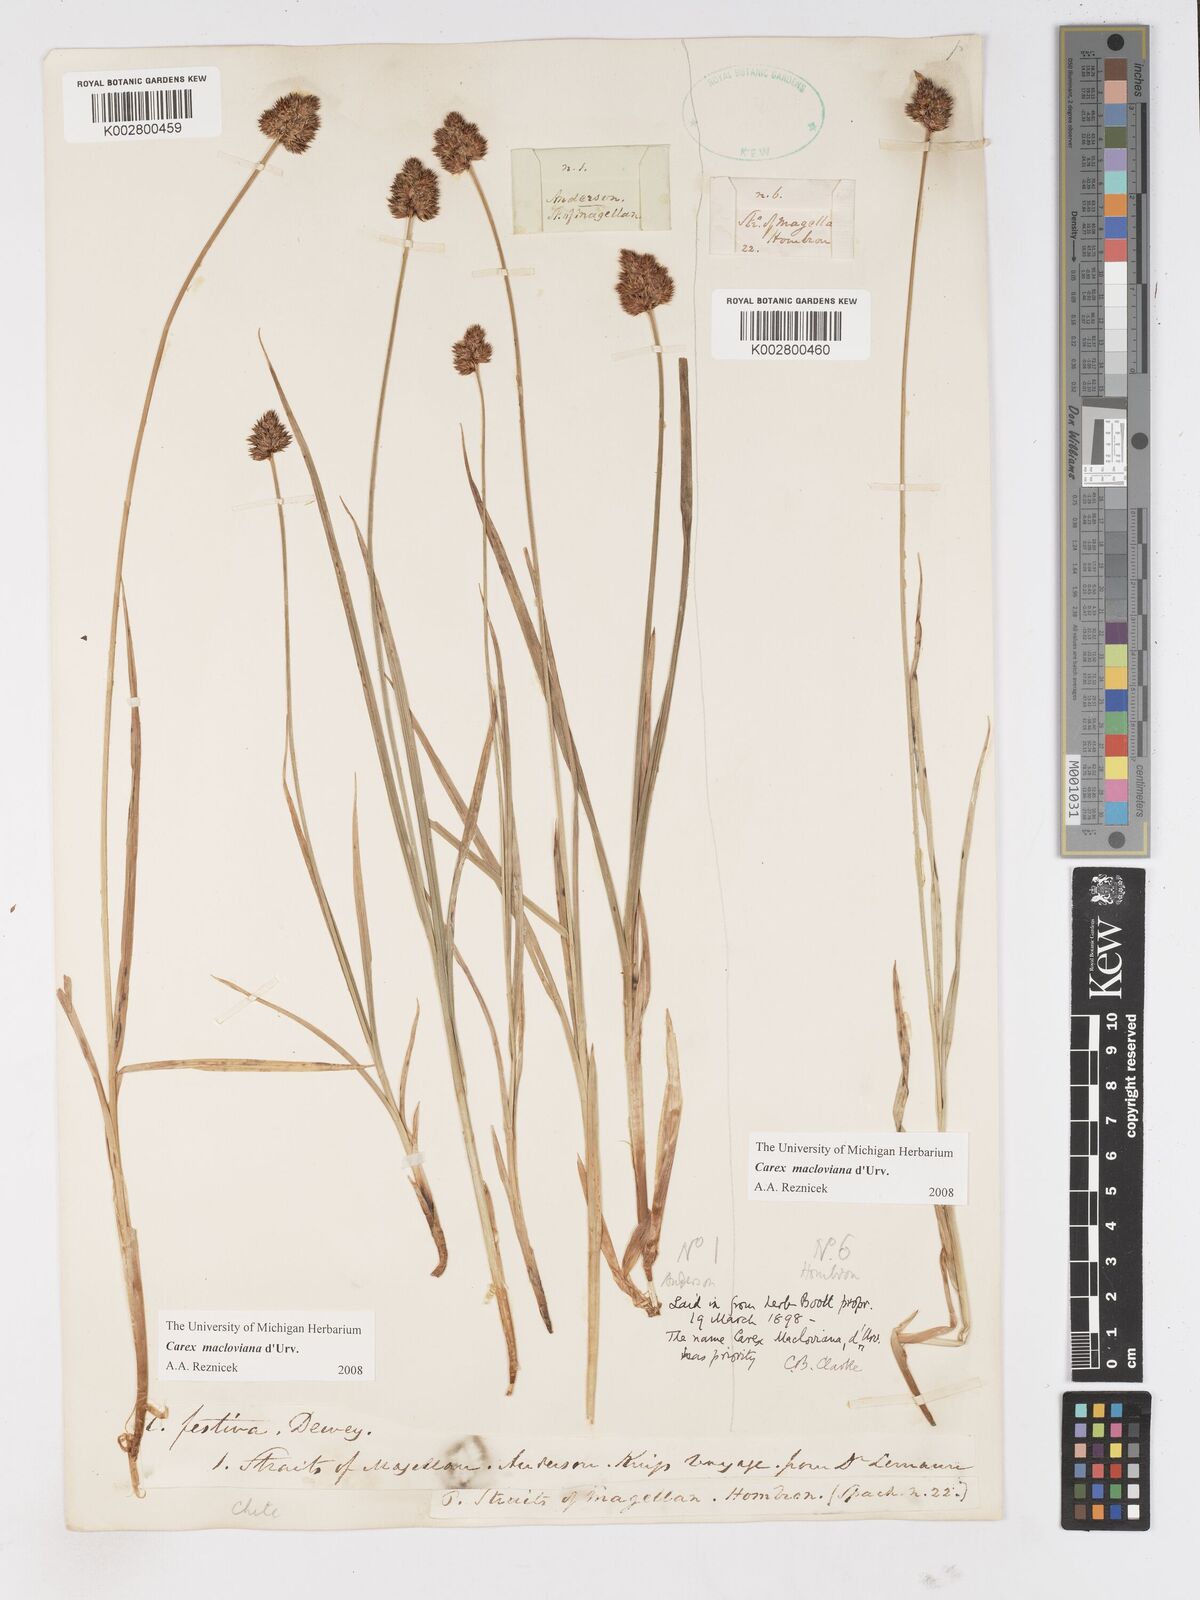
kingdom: Plantae
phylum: Tracheophyta
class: Liliopsida
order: Poales
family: Cyperaceae
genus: Carex
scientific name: Carex macloviana
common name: Falkland island sedge
